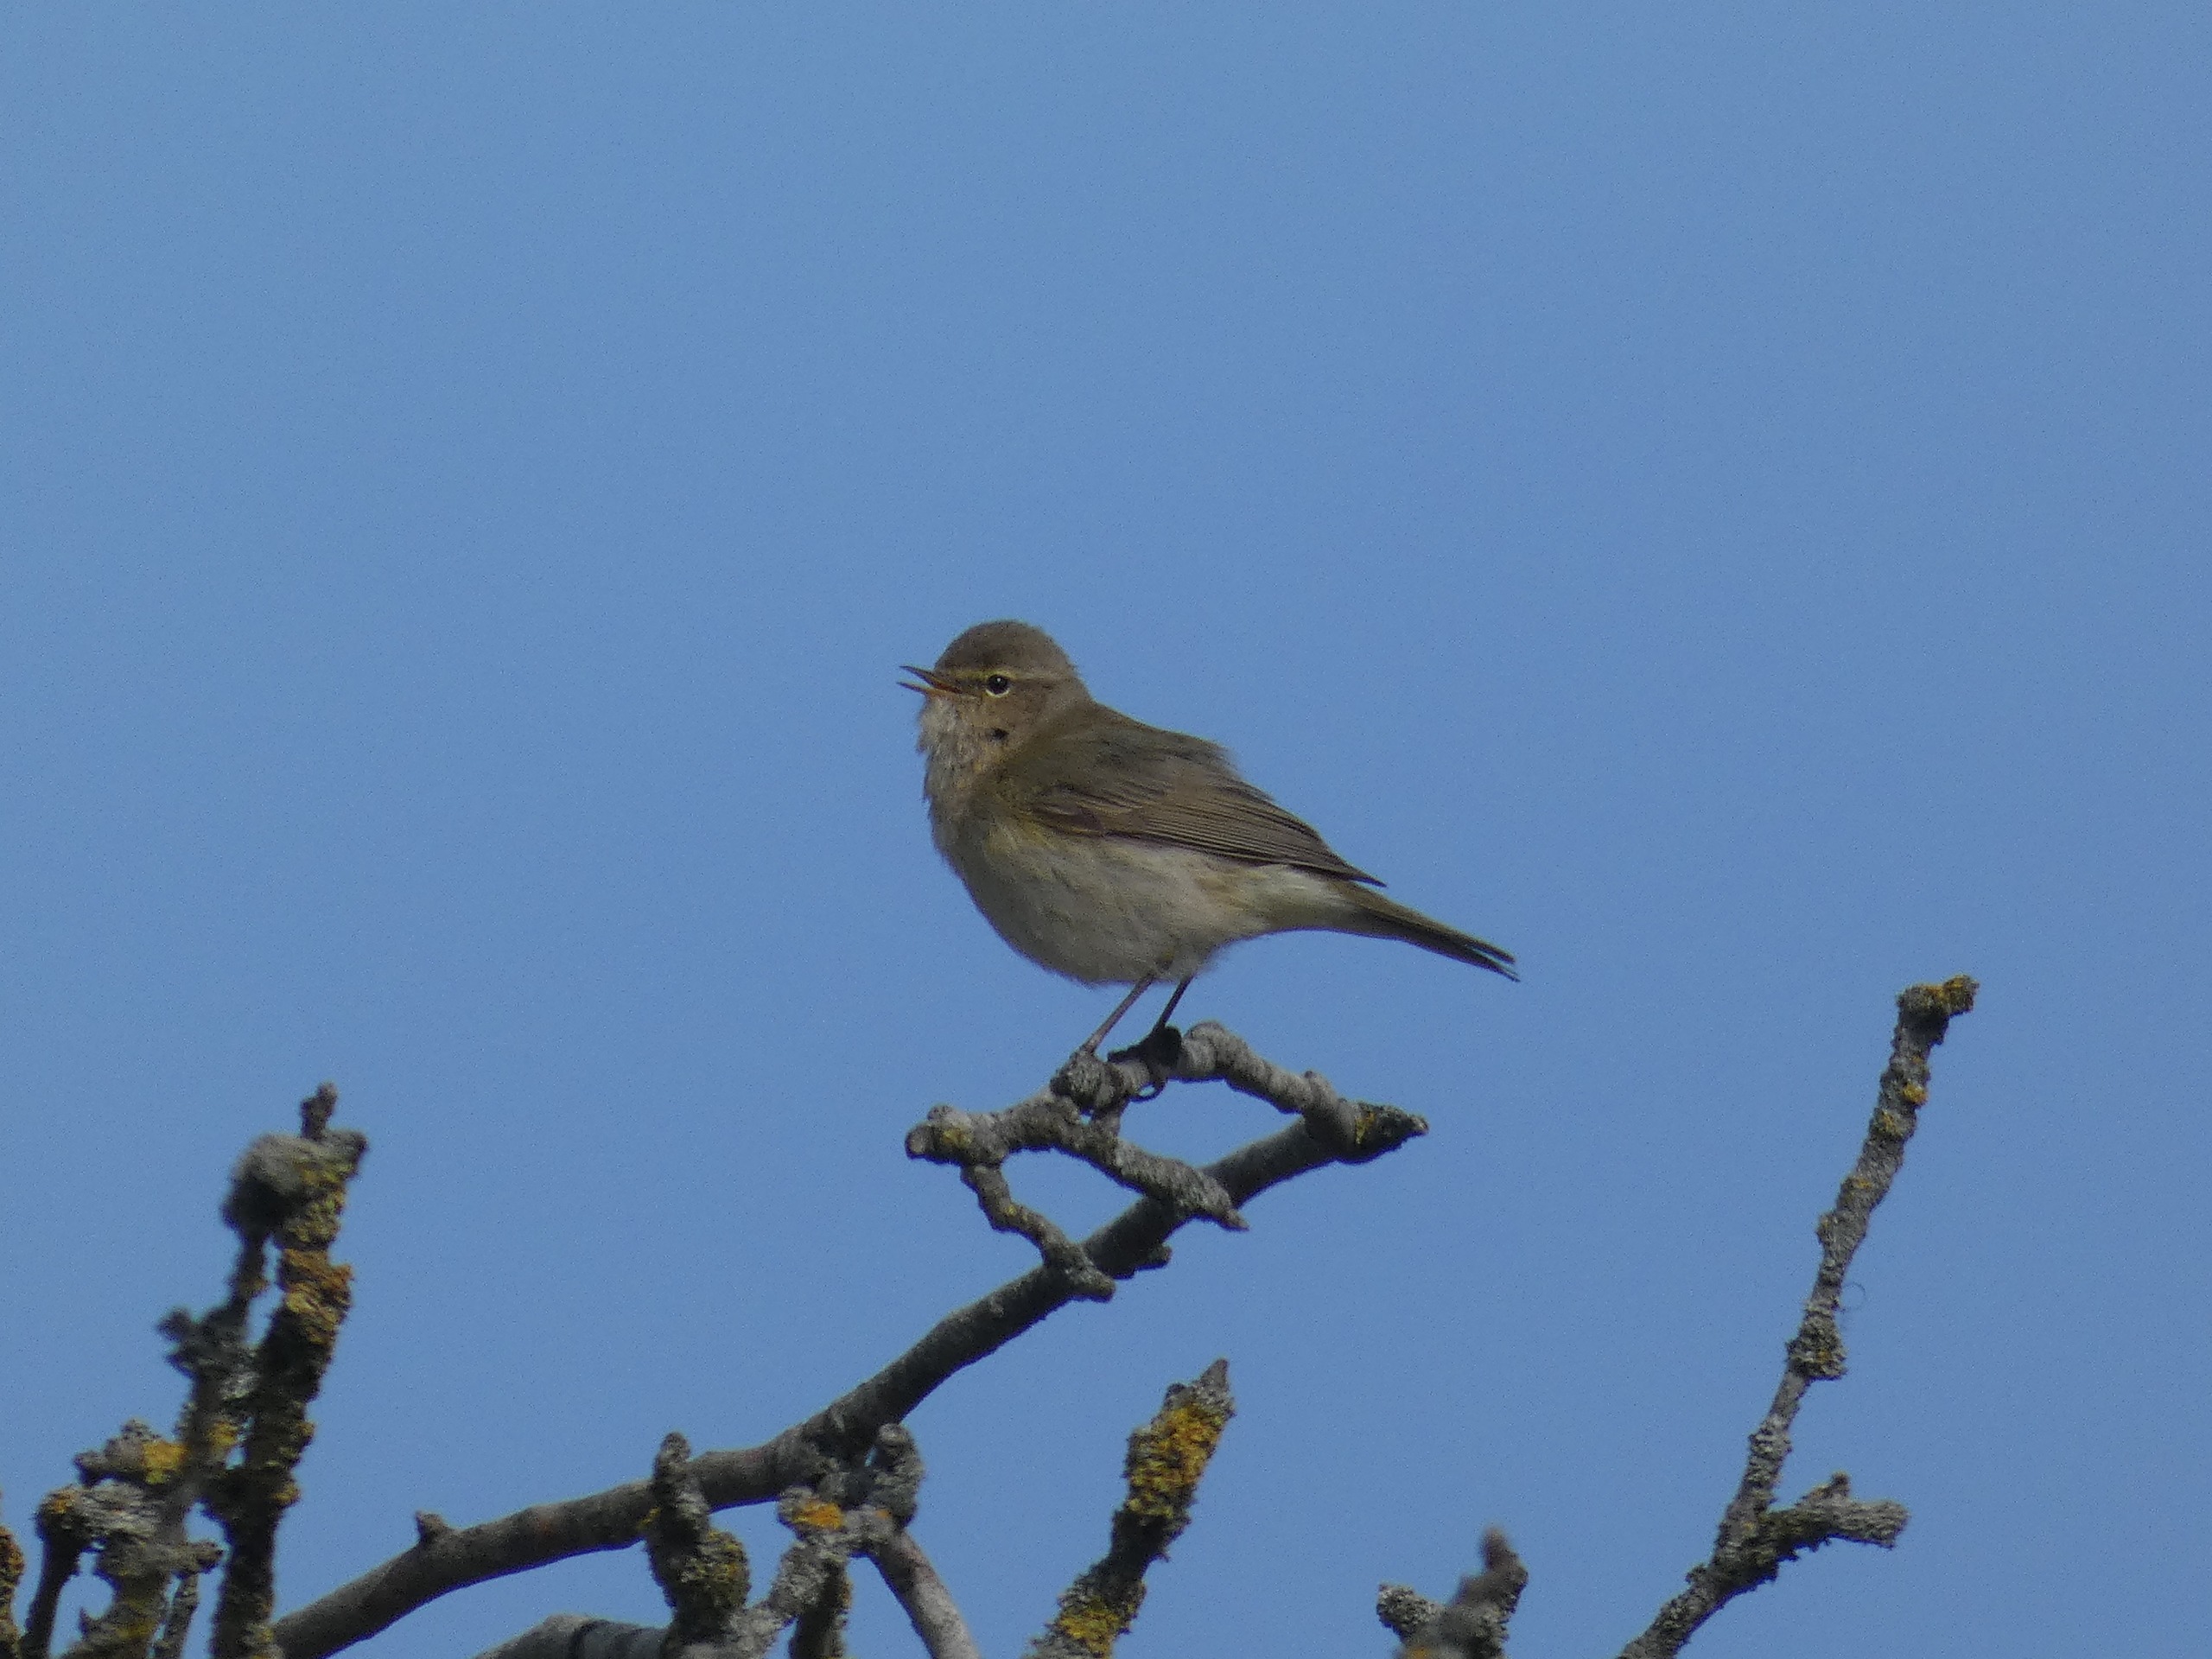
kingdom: Animalia
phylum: Chordata
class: Aves
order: Passeriformes
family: Phylloscopidae
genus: Phylloscopus
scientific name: Phylloscopus collybita
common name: Gransanger
